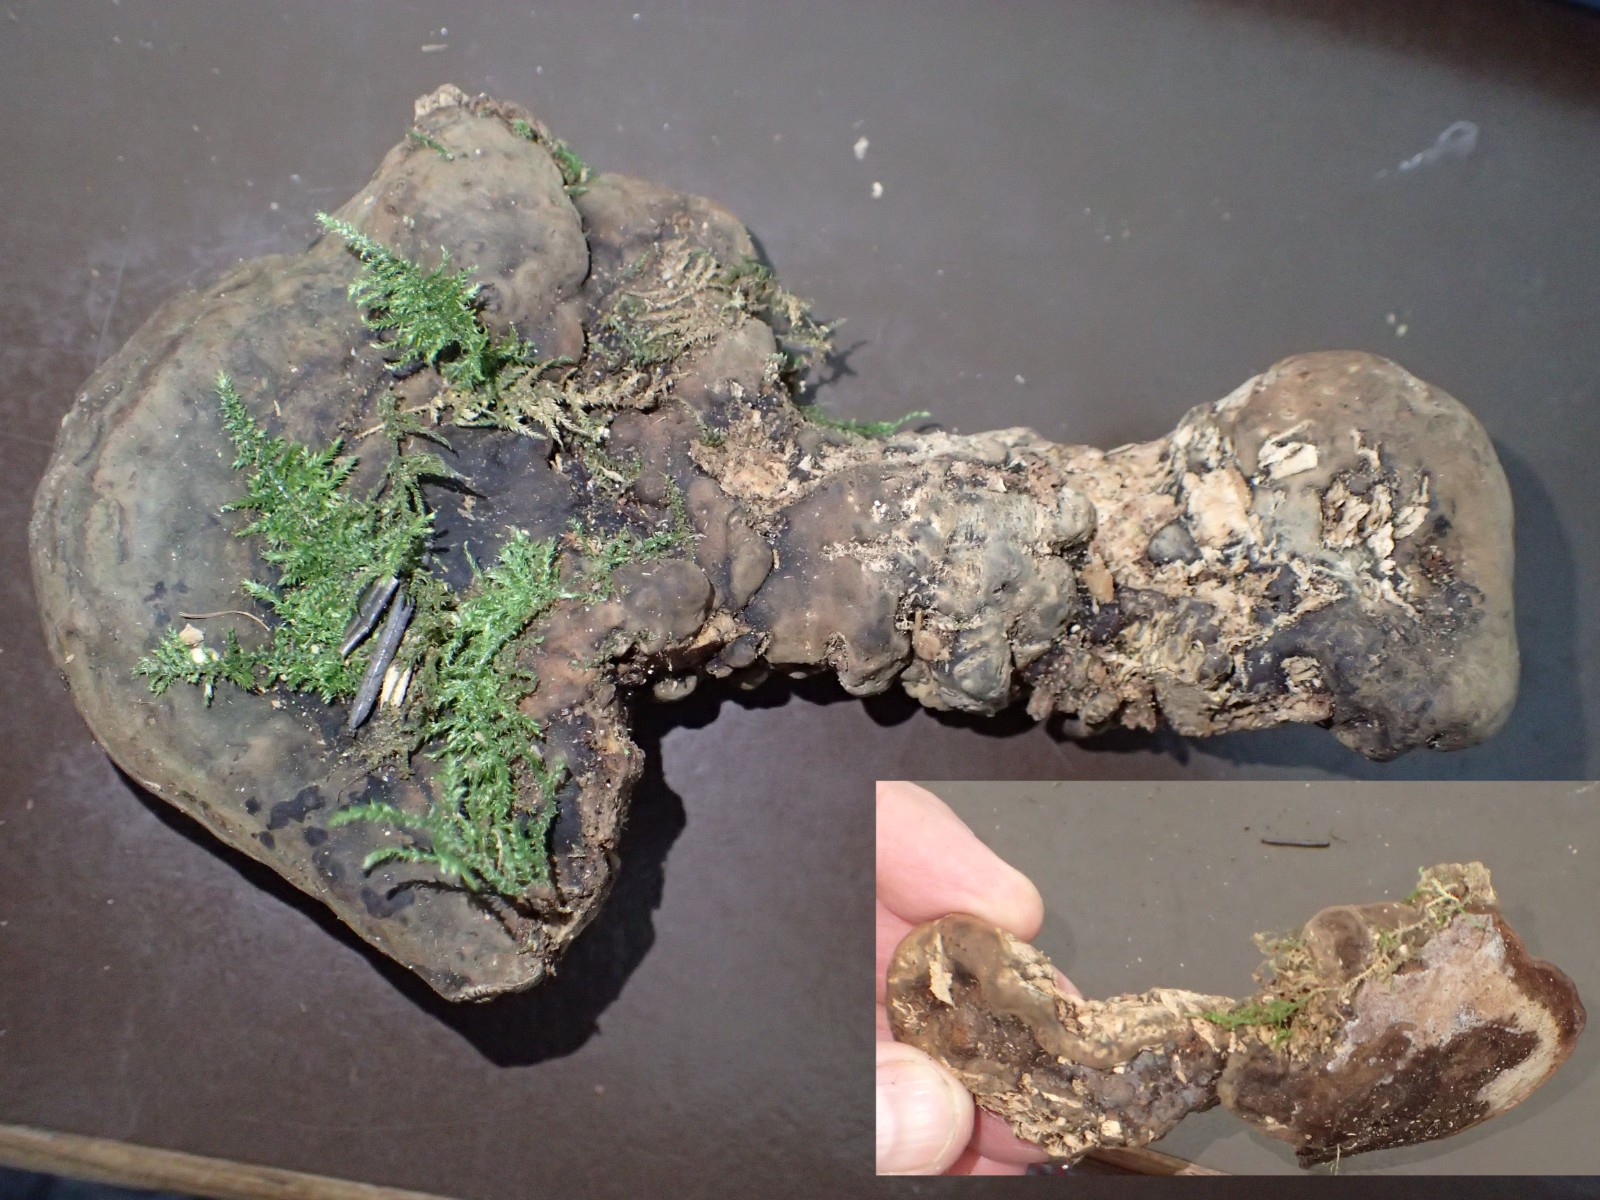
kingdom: Fungi
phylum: Basidiomycota
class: Agaricomycetes
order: Polyporales
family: Polyporaceae
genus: Ganoderma
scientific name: Ganoderma
